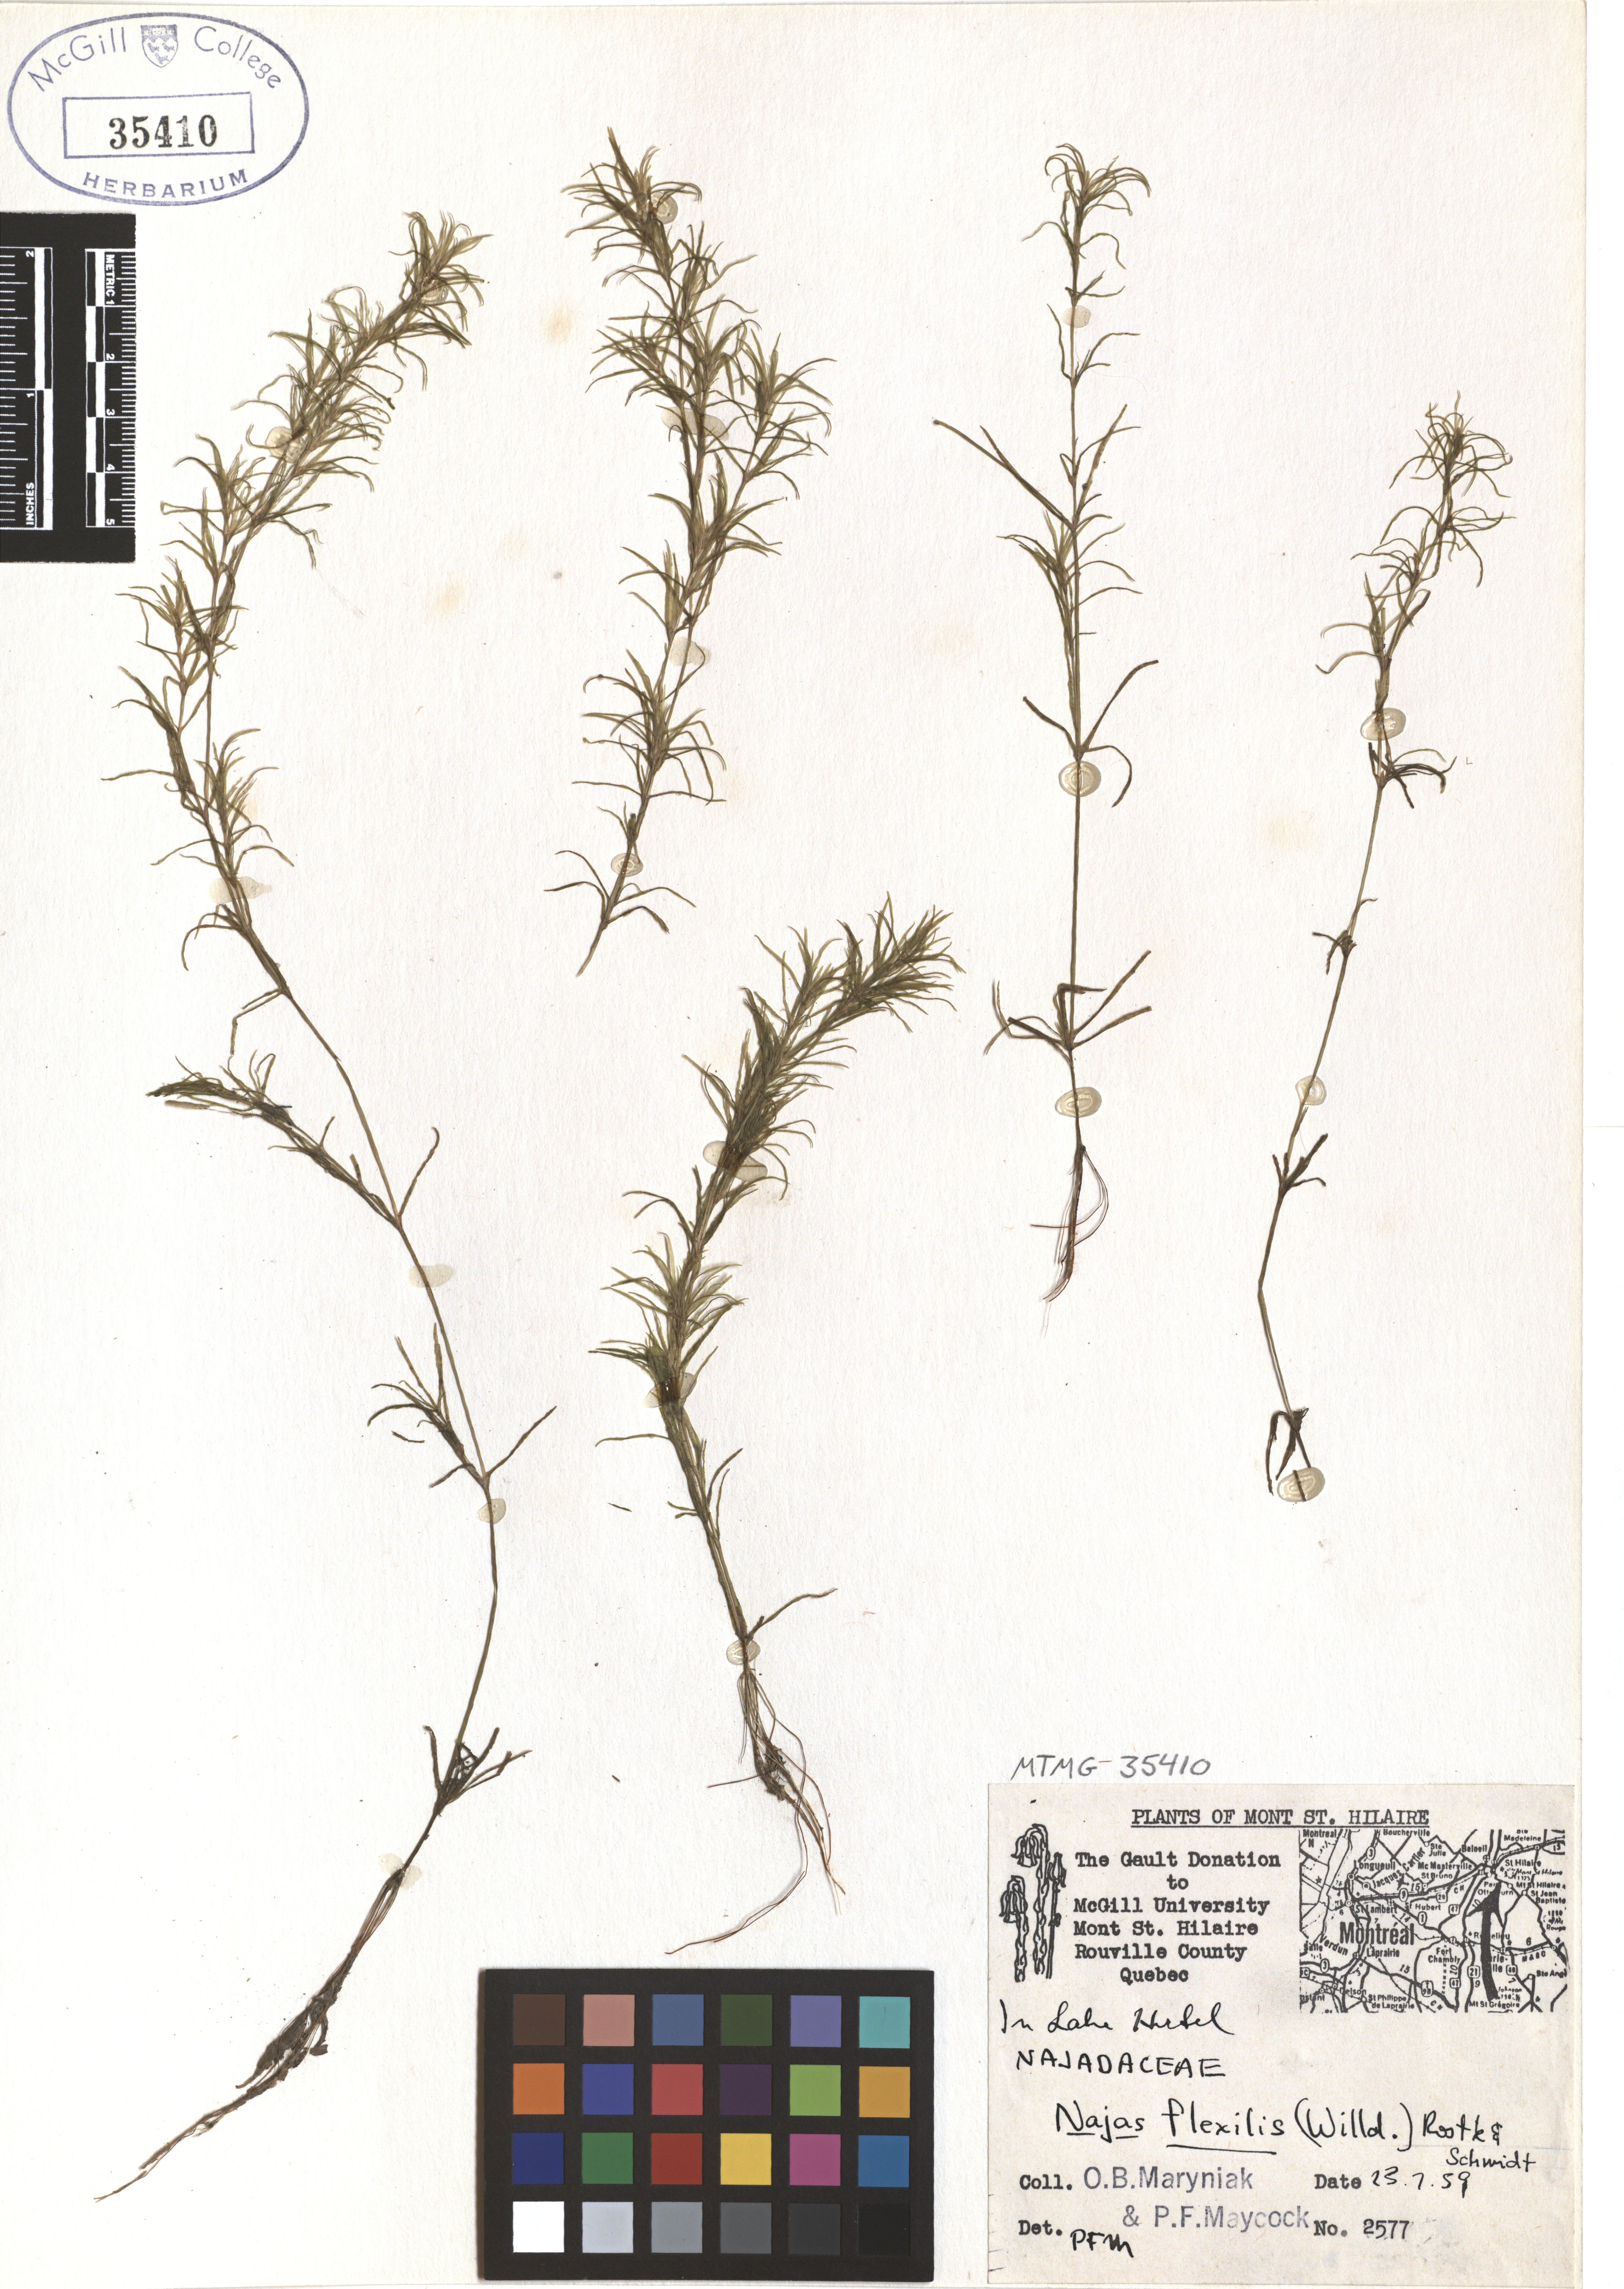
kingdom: Plantae
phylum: Tracheophyta
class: Liliopsida
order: Alismatales
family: Hydrocharitaceae
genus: Najas
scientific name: Najas guadalupensis
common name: Southern naiad
